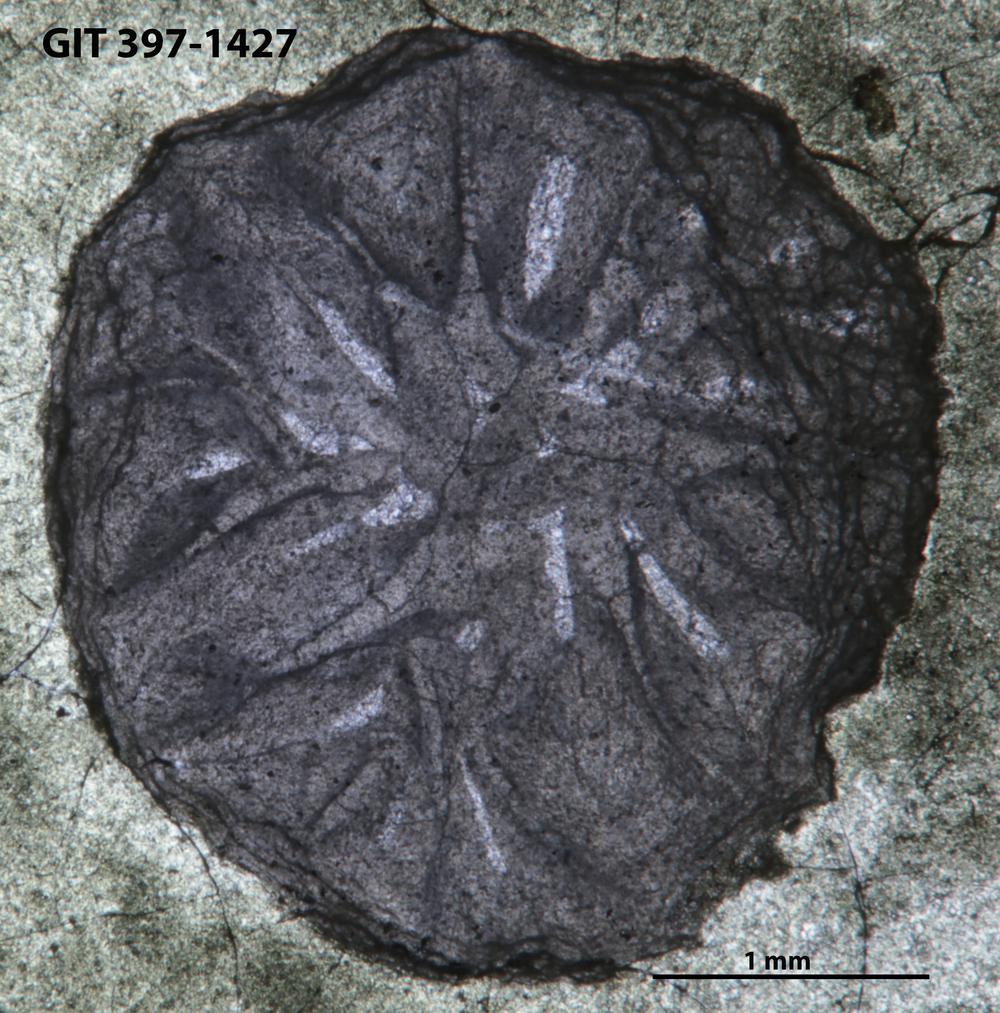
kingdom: Animalia
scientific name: Animalia
